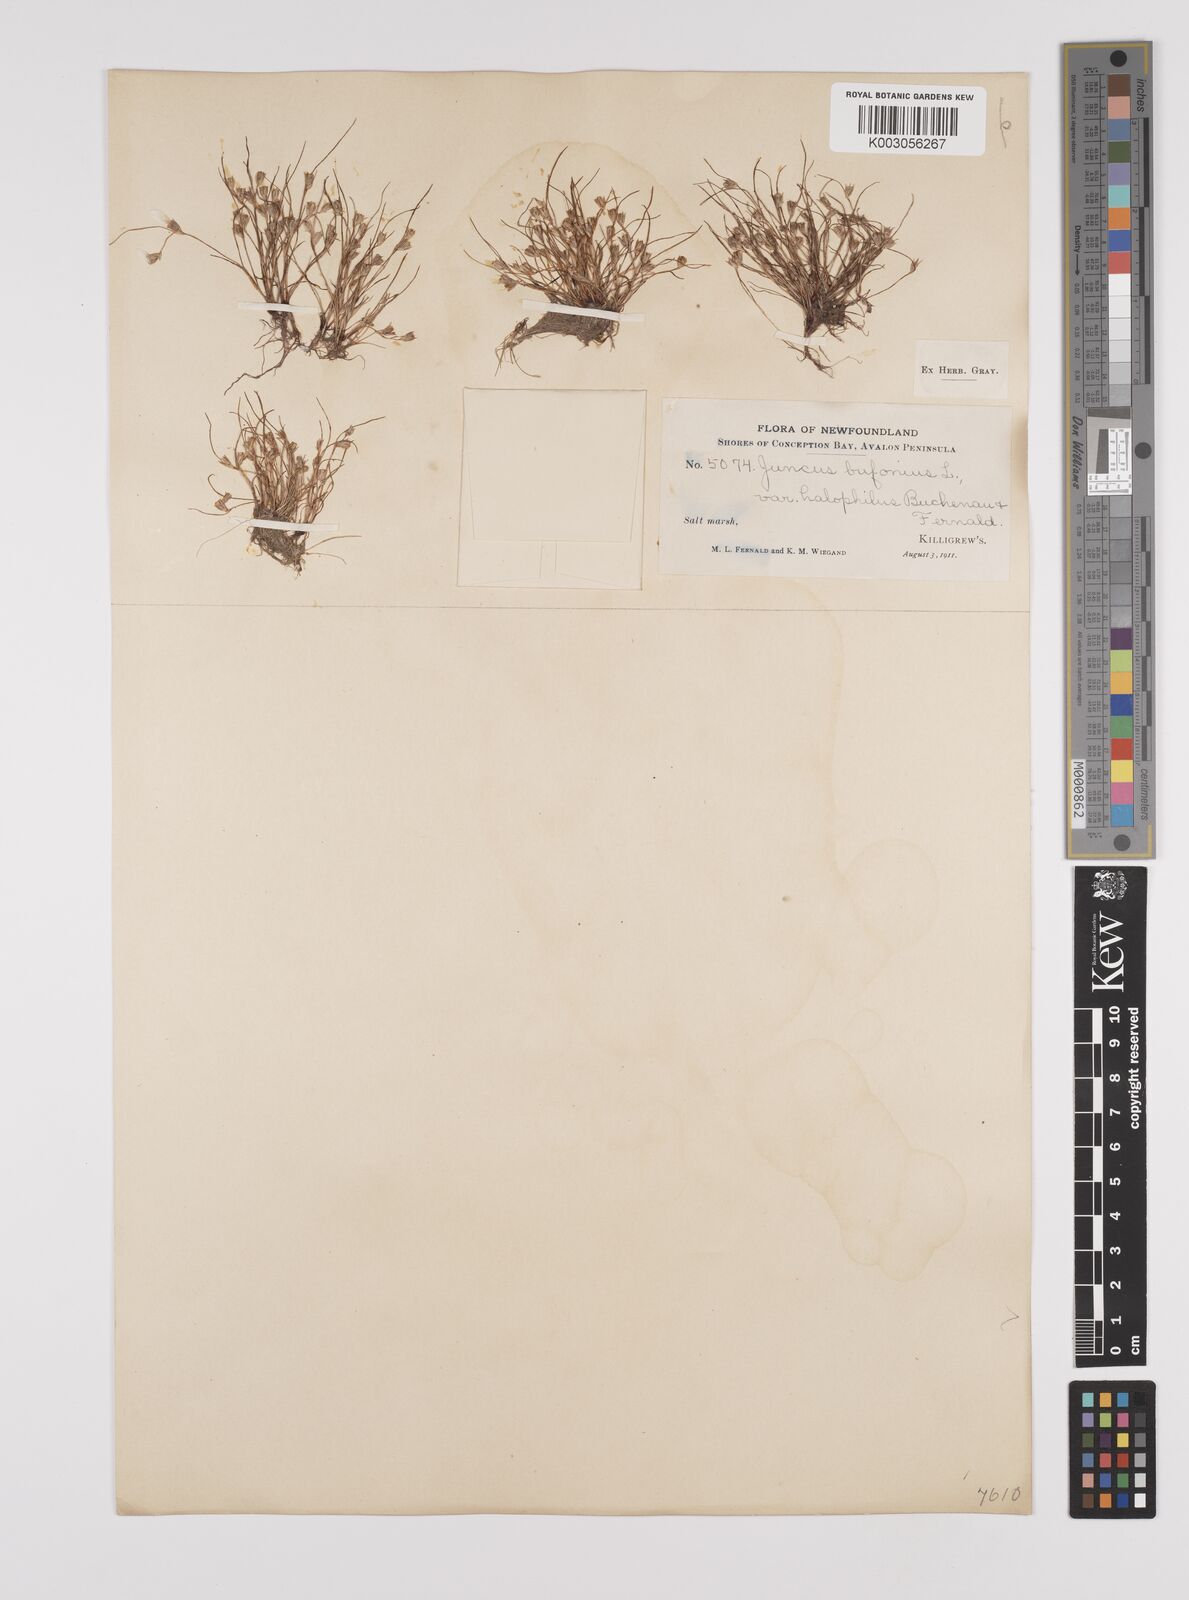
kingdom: Plantae
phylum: Tracheophyta
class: Liliopsida
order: Poales
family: Juncaceae
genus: Juncus
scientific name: Juncus ranarius
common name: Frog rush
